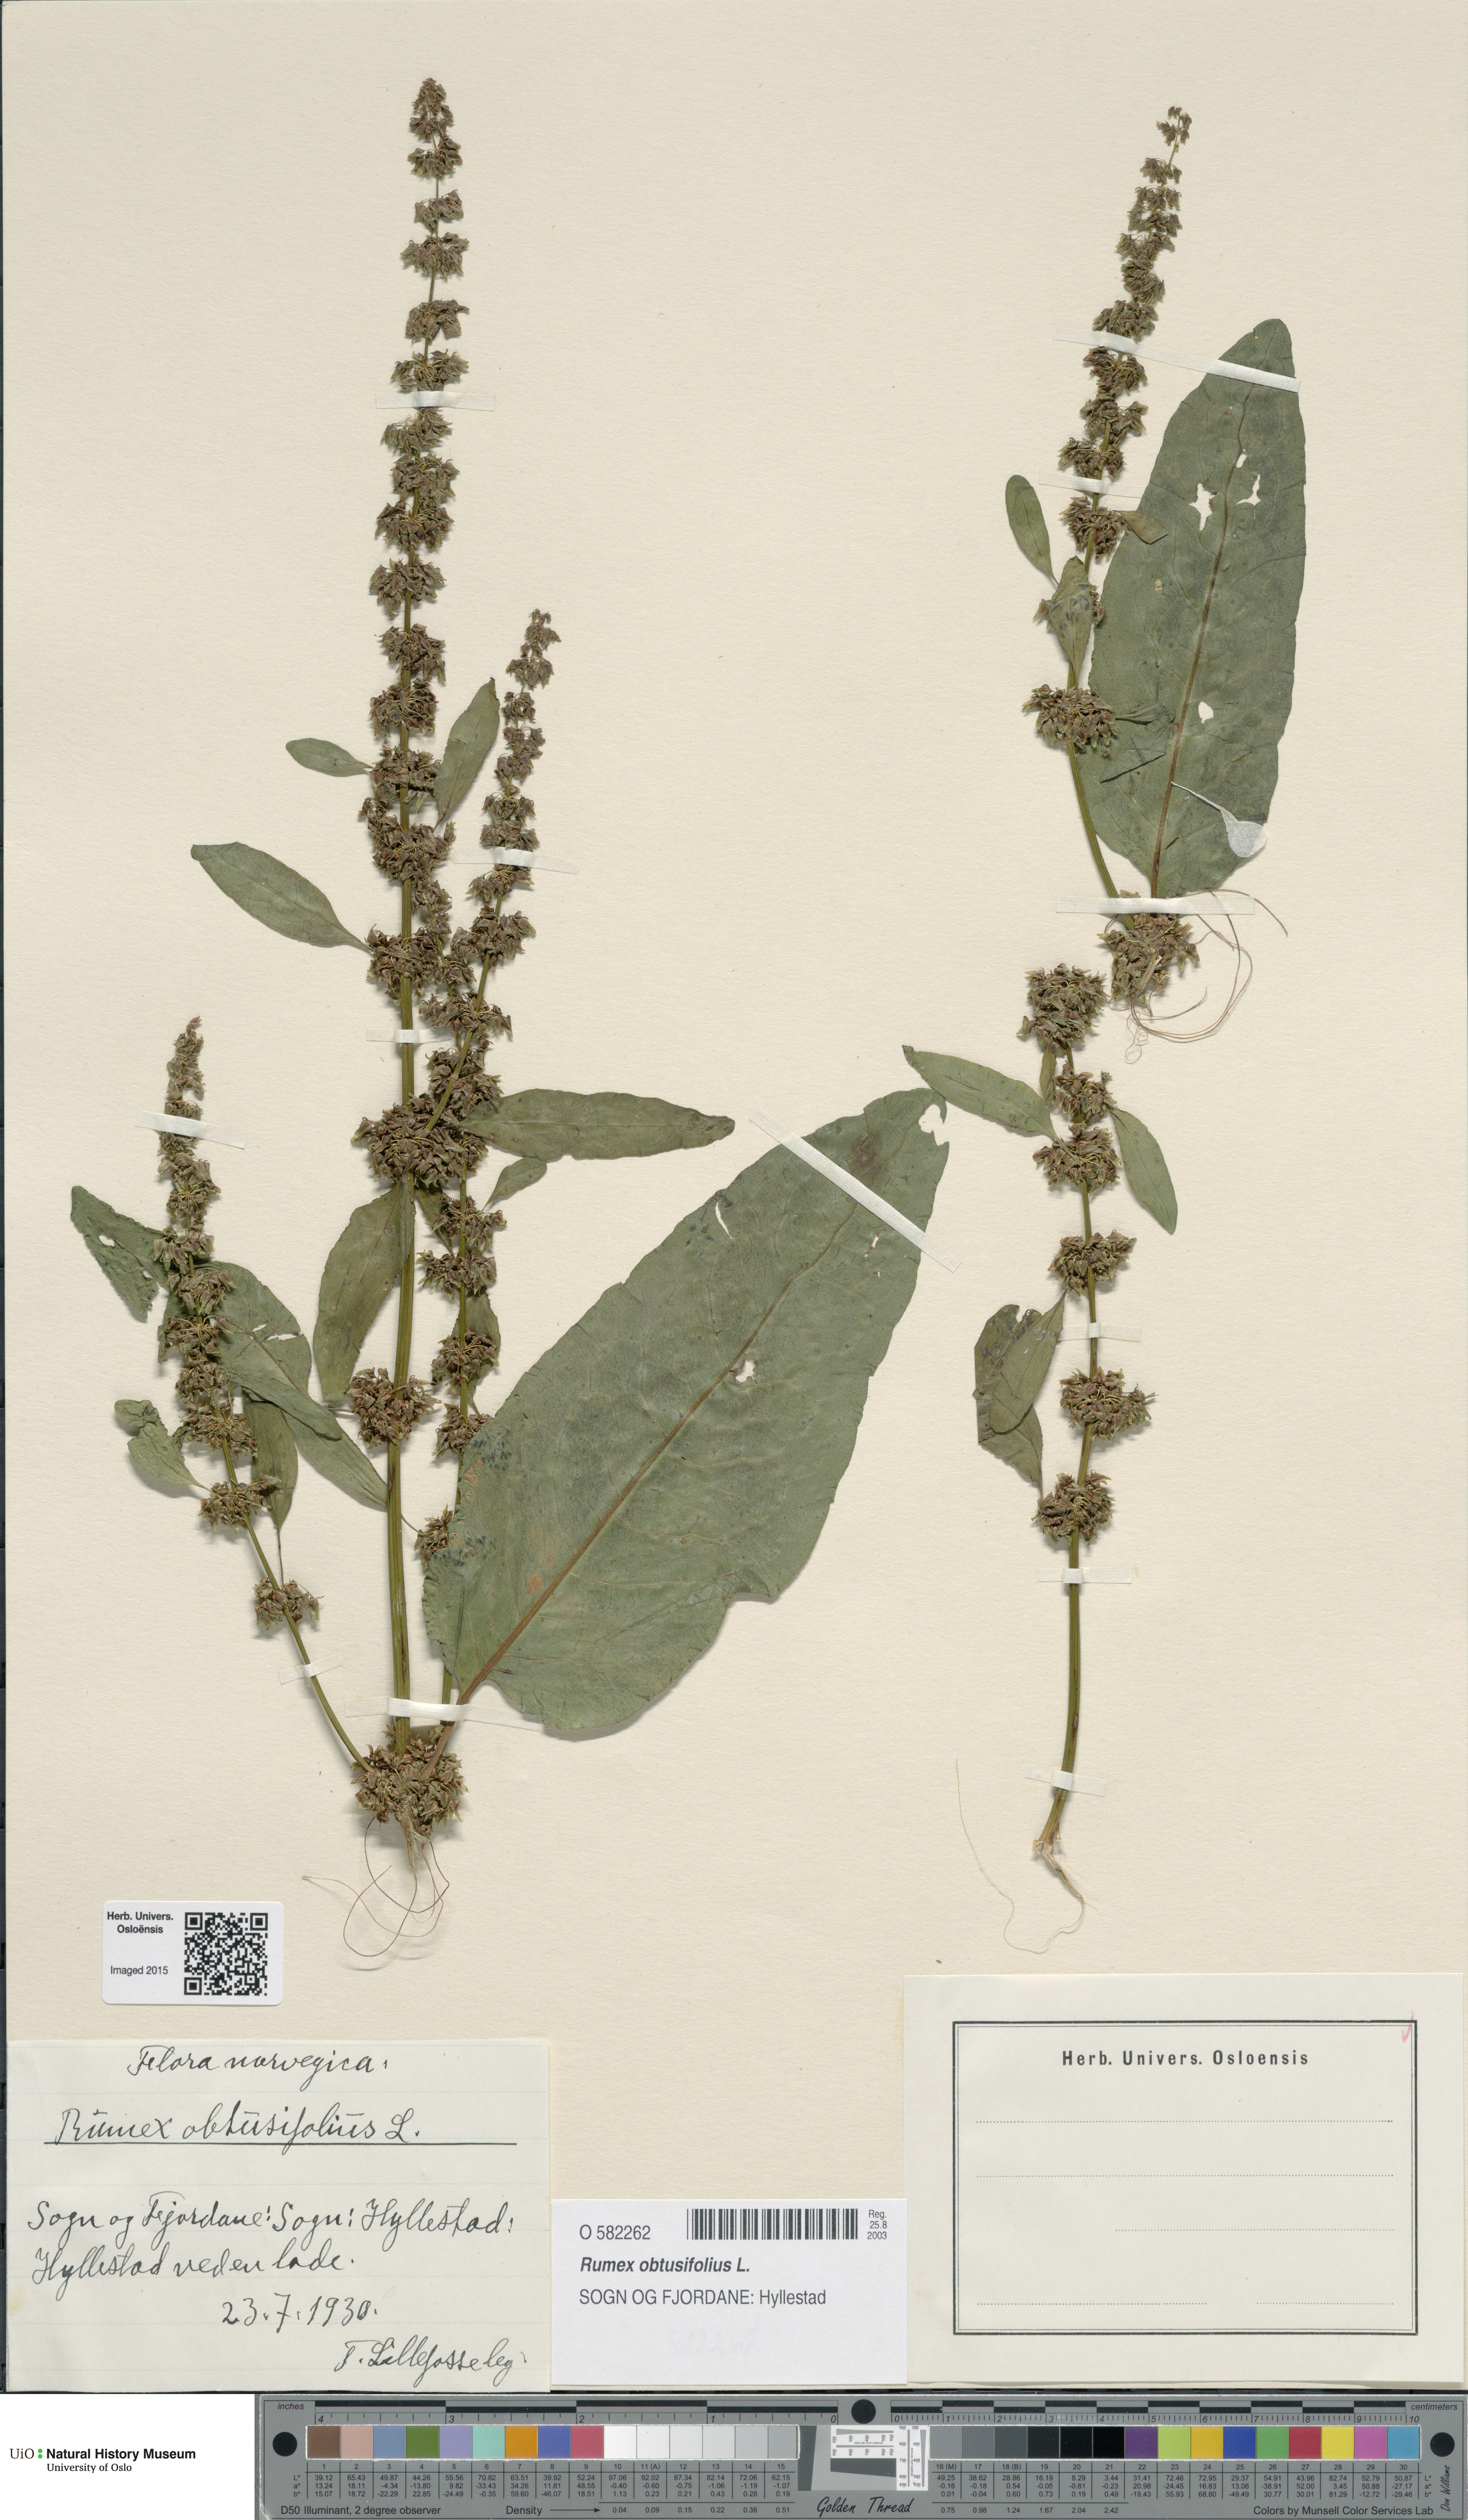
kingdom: Plantae
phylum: Tracheophyta
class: Magnoliopsida
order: Caryophyllales
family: Polygonaceae
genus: Rumex
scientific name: Rumex obtusifolius
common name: Bitter dock
